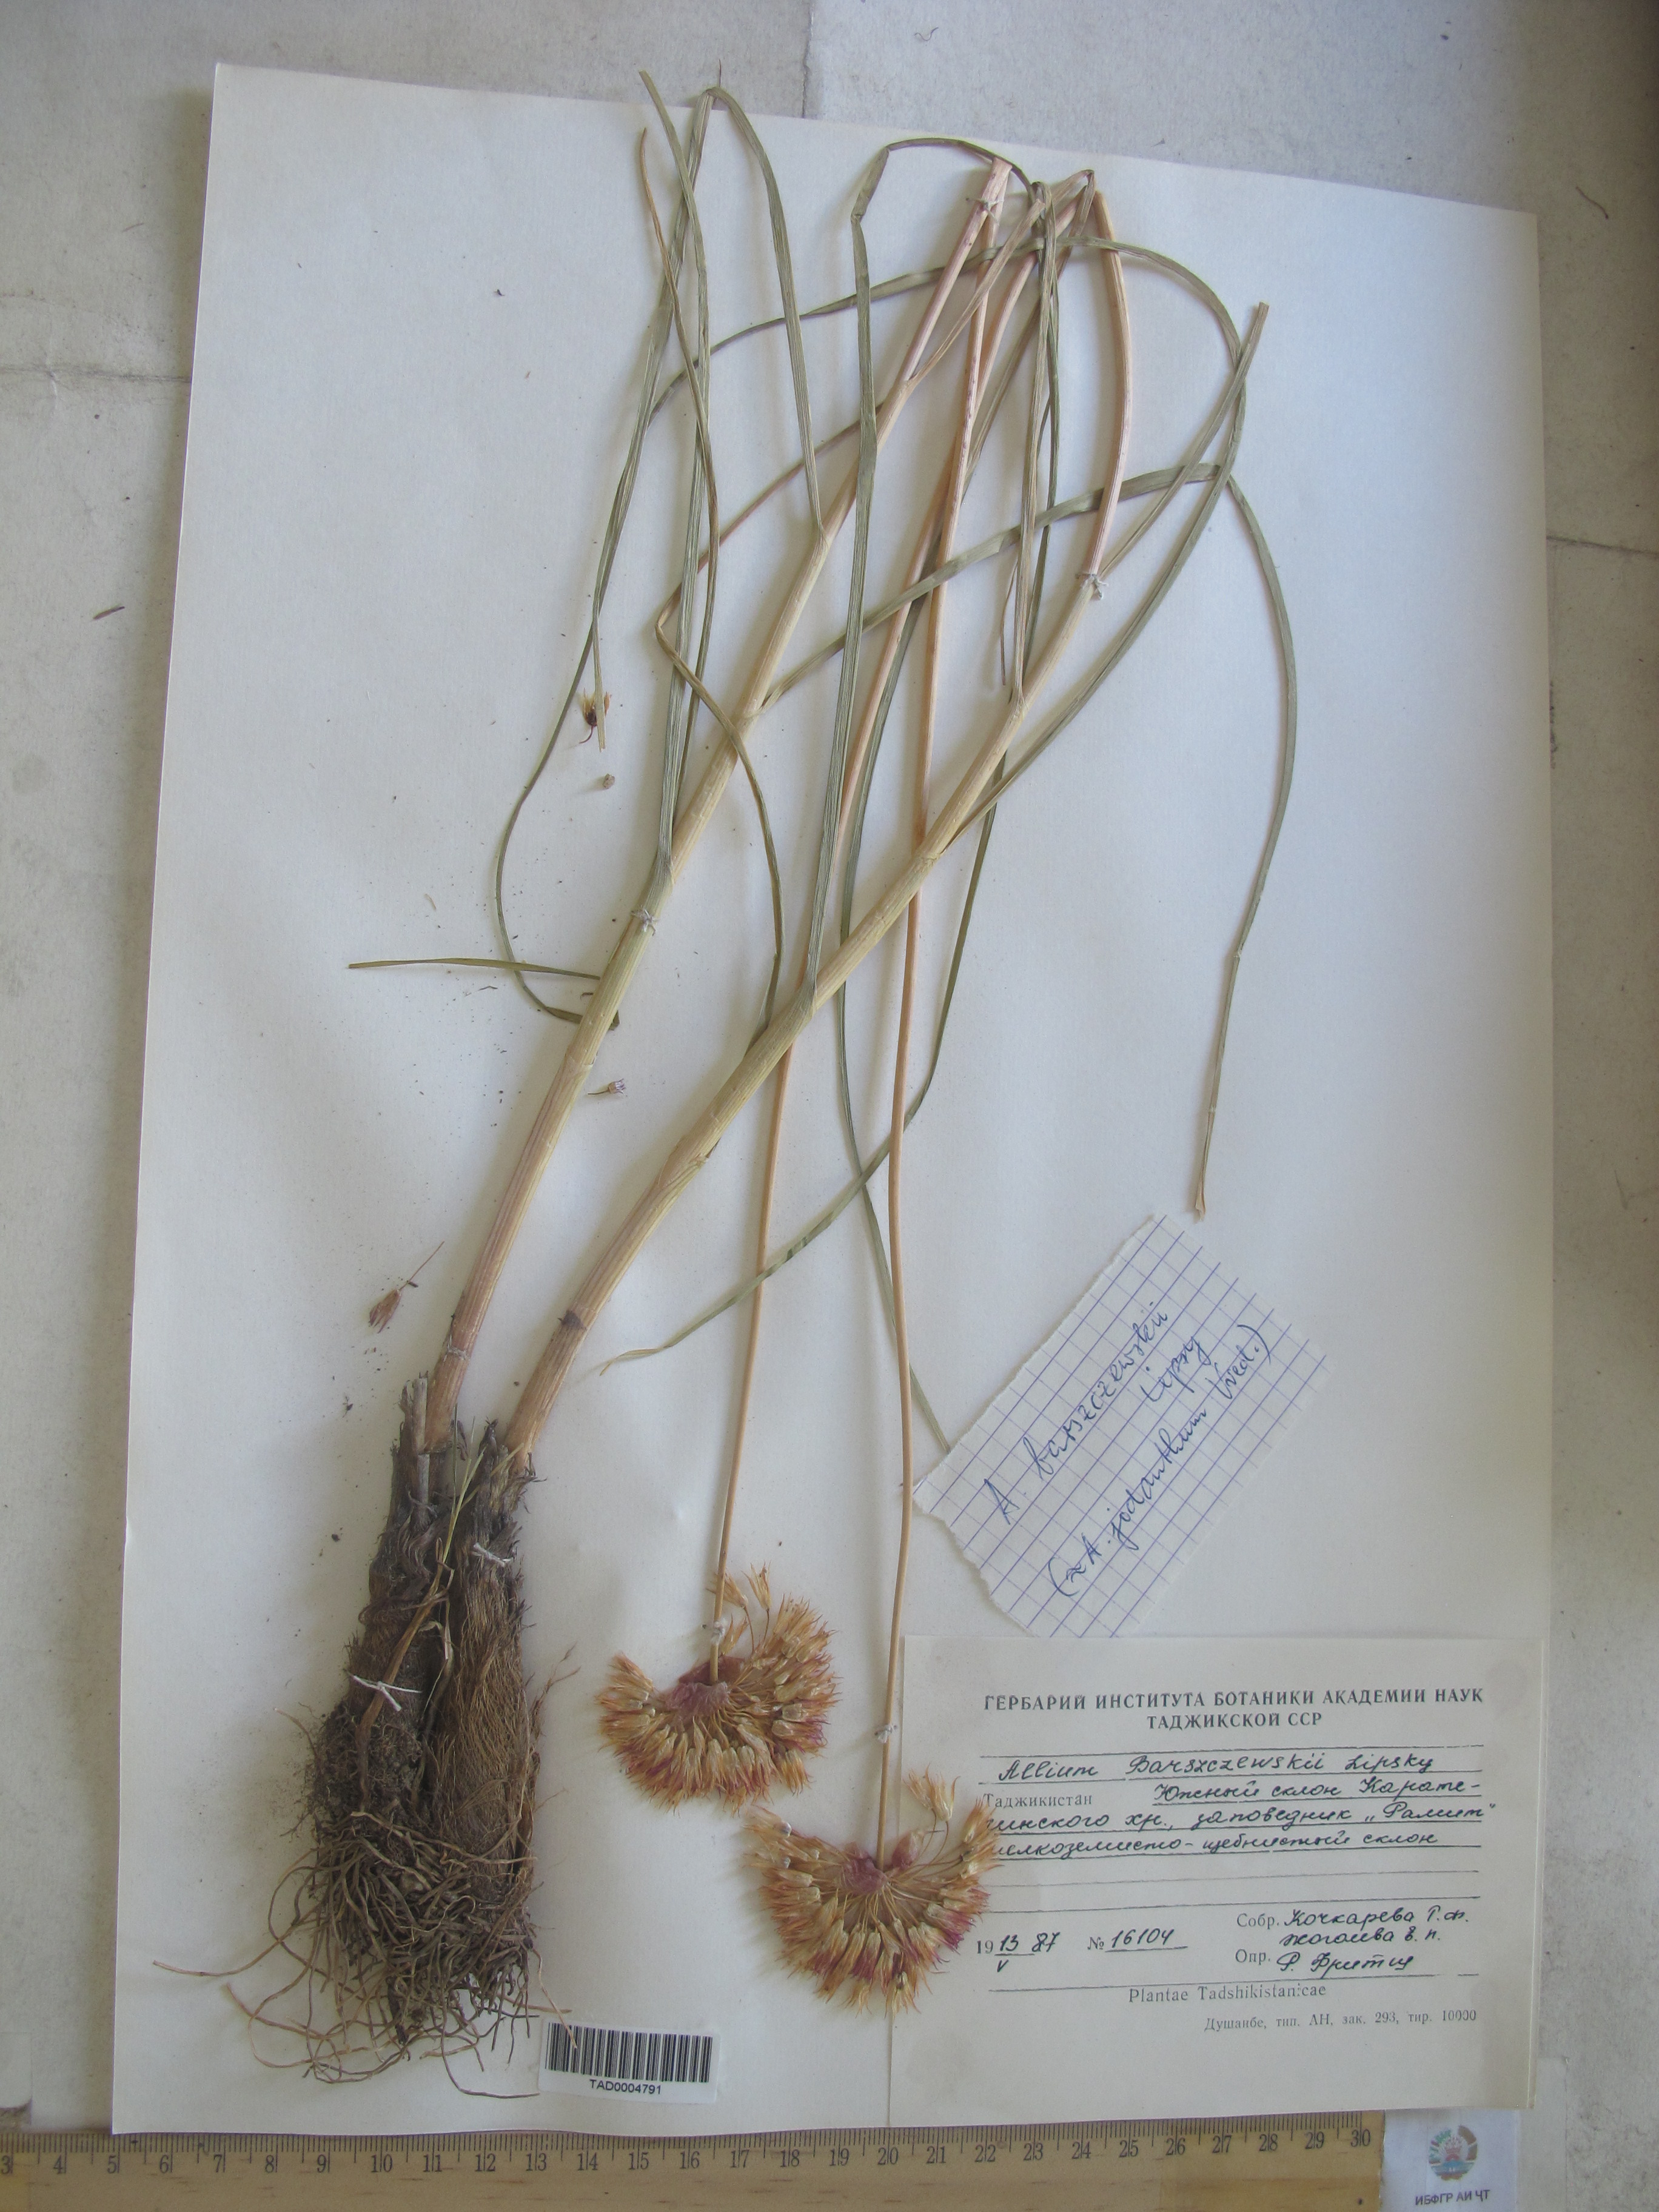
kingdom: Plantae
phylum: Tracheophyta
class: Liliopsida
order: Asparagales
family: Amaryllidaceae
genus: Allium
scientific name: Allium barsczewskii
